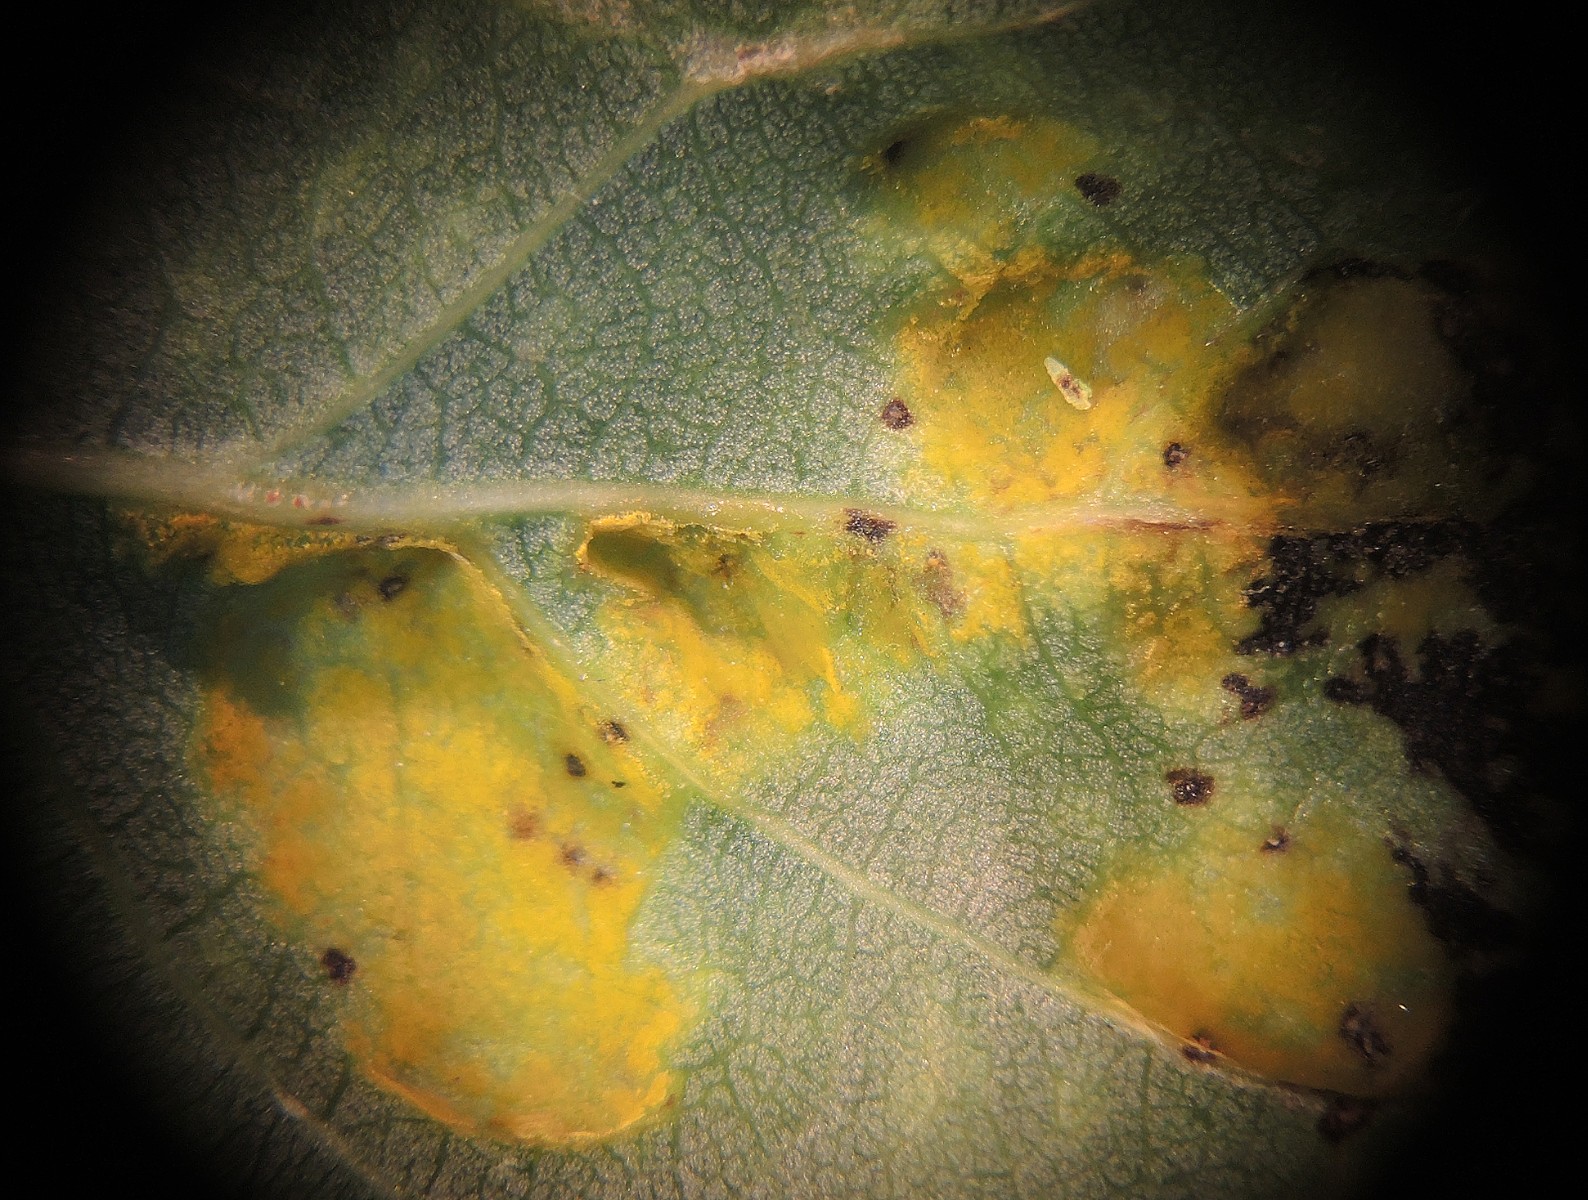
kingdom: Fungi
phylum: Ascomycota
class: Taphrinomycetes
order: Taphrinales
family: Taphrinaceae
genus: Taphrina
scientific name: Taphrina populina
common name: Poplar leaf curl
